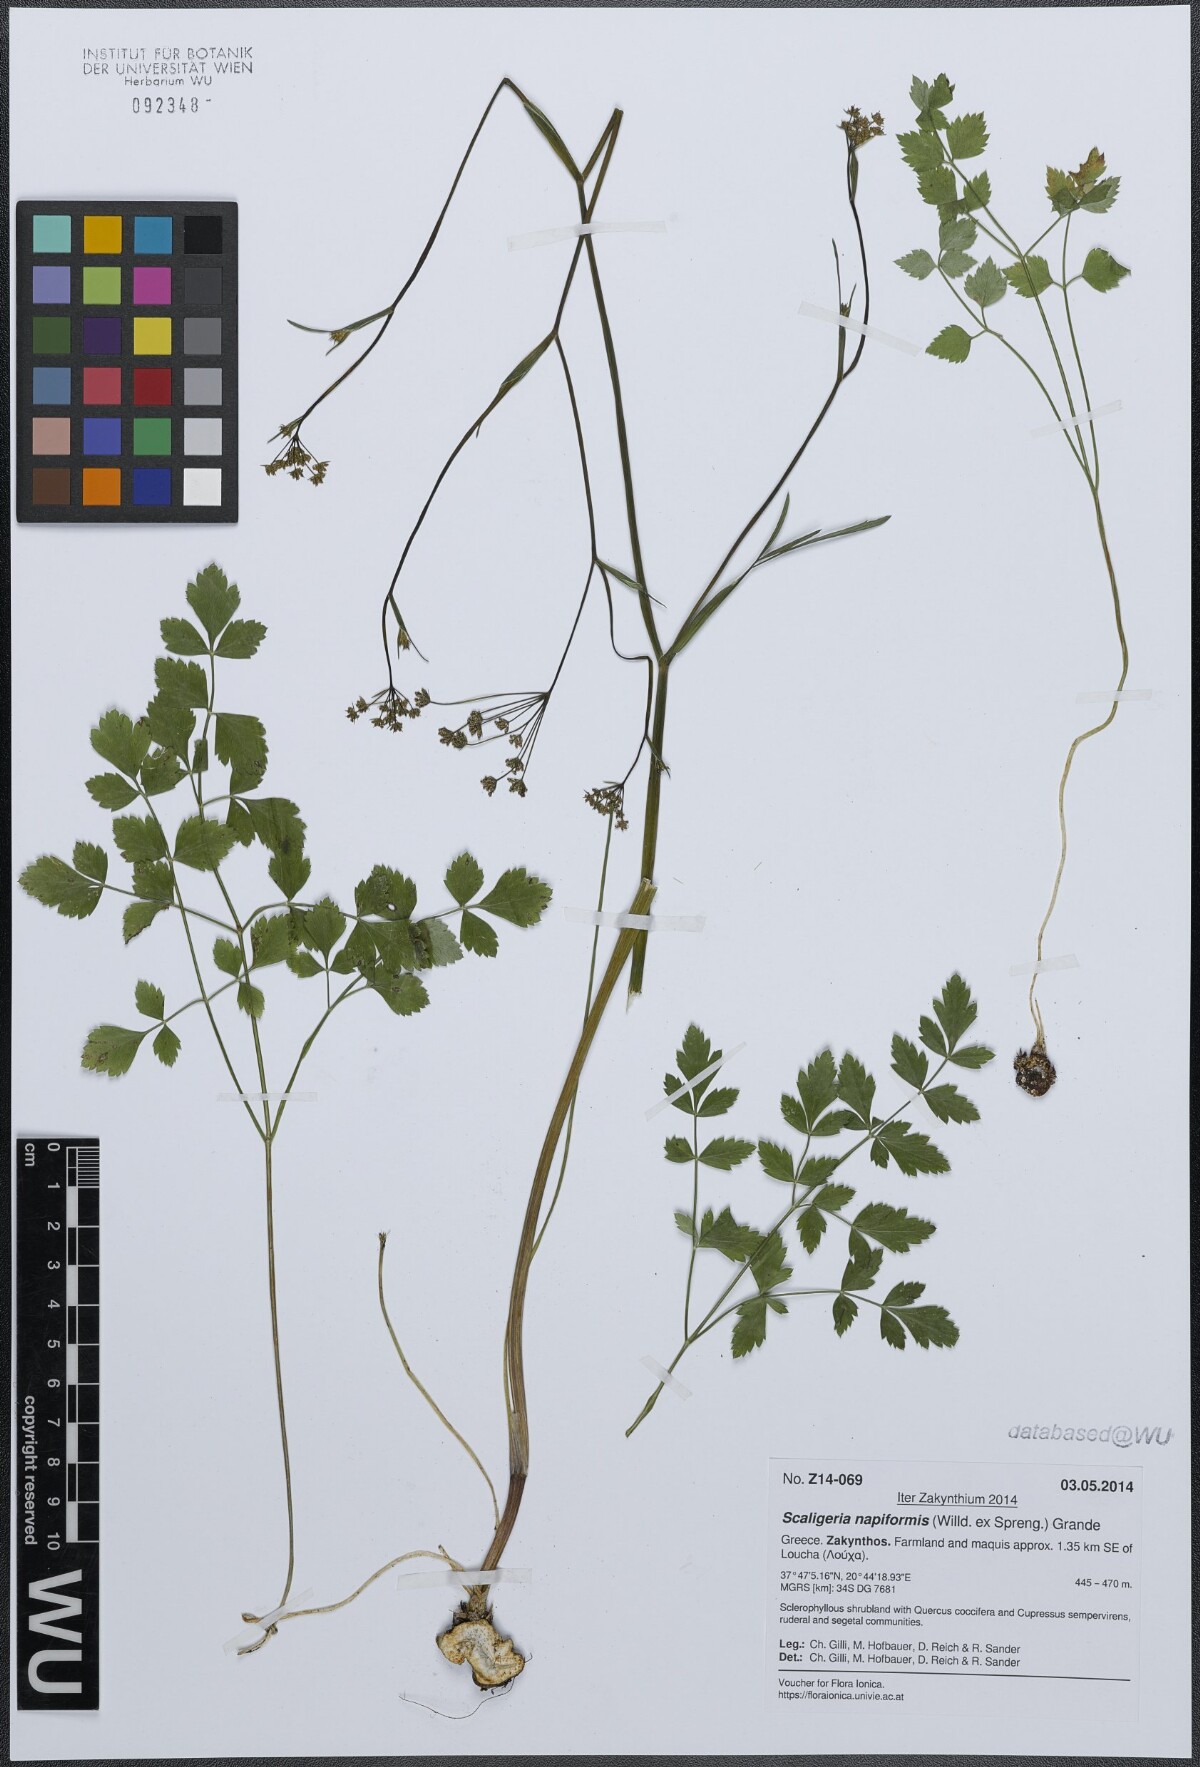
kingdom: Plantae
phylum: Tracheophyta
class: Magnoliopsida
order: Apiales
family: Apiaceae
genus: Scaligeria
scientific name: Scaligeria napiformis
